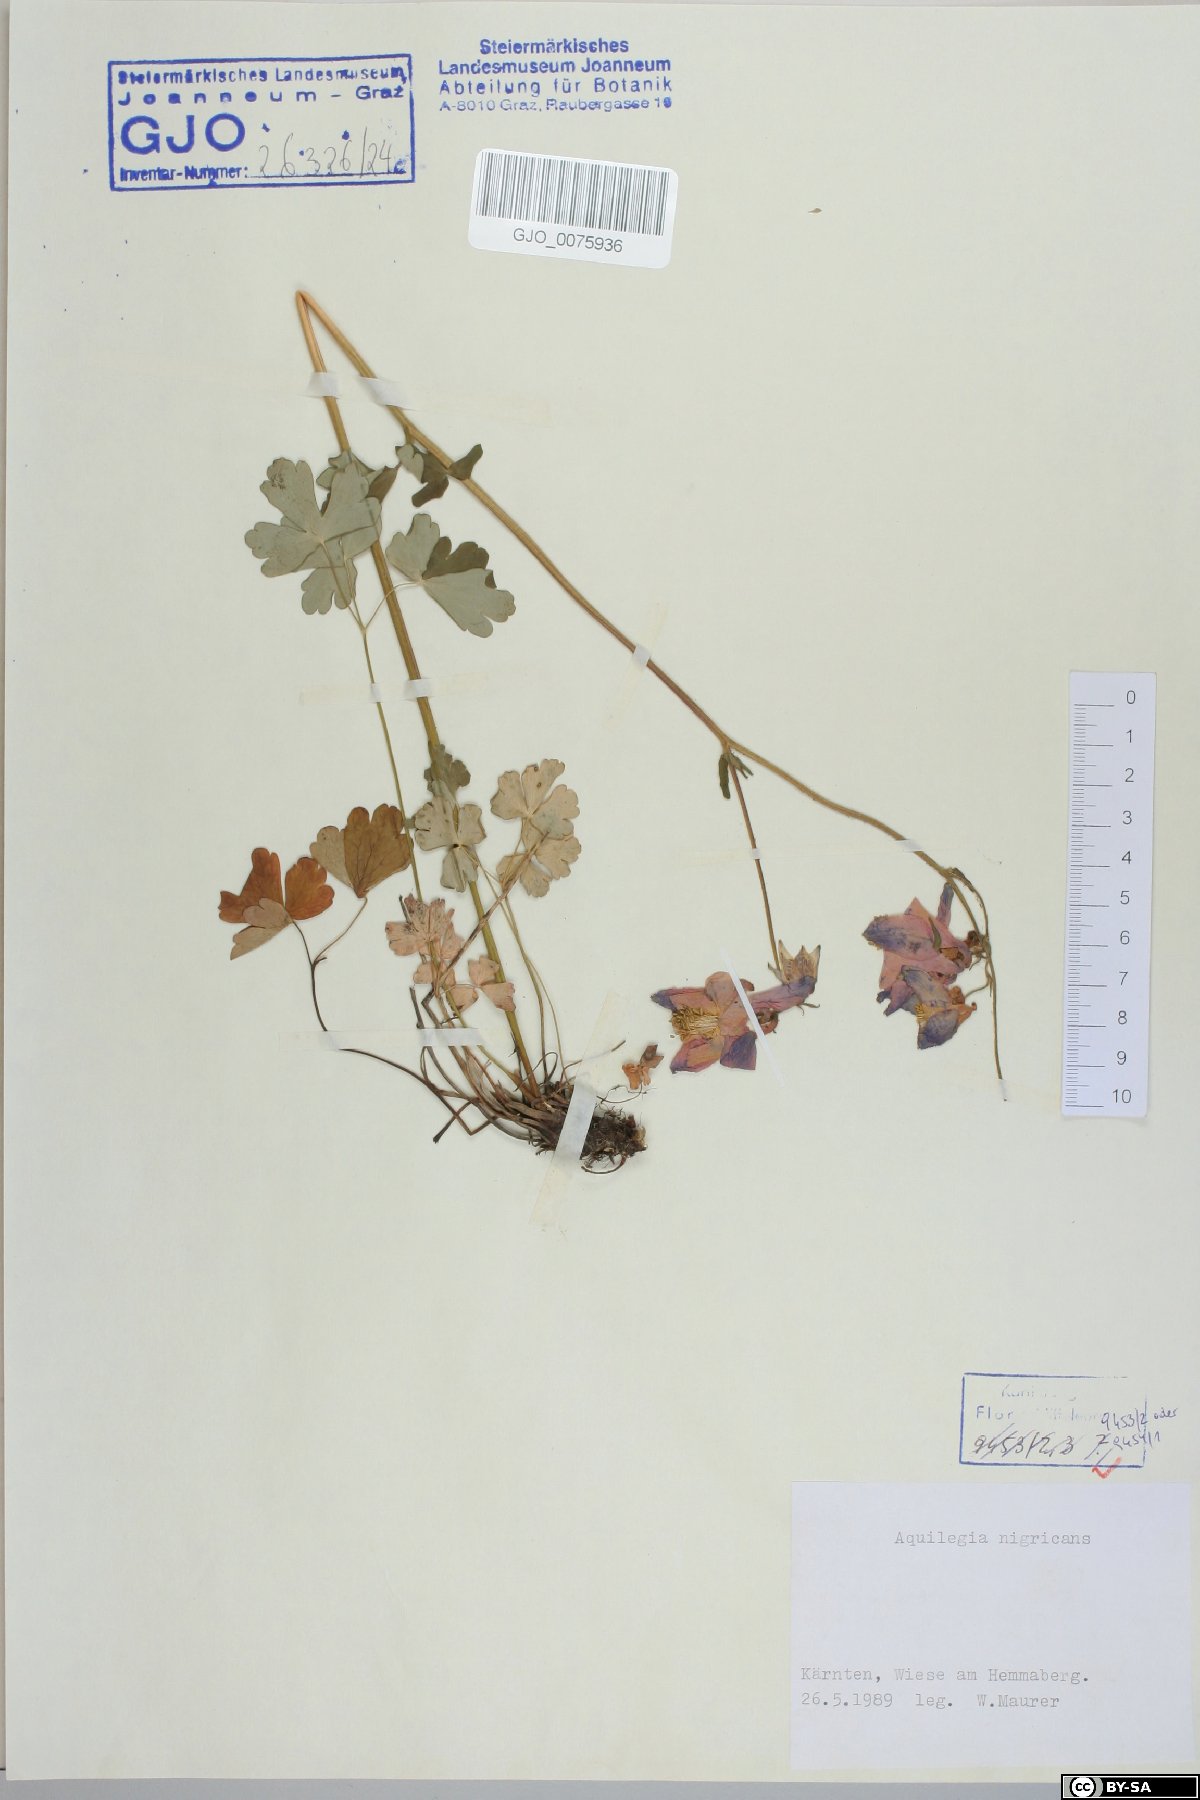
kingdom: Plantae
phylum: Tracheophyta
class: Magnoliopsida
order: Ranunculales
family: Ranunculaceae
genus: Aquilegia
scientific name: Aquilegia nigricans
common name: Bulgarian columbine
